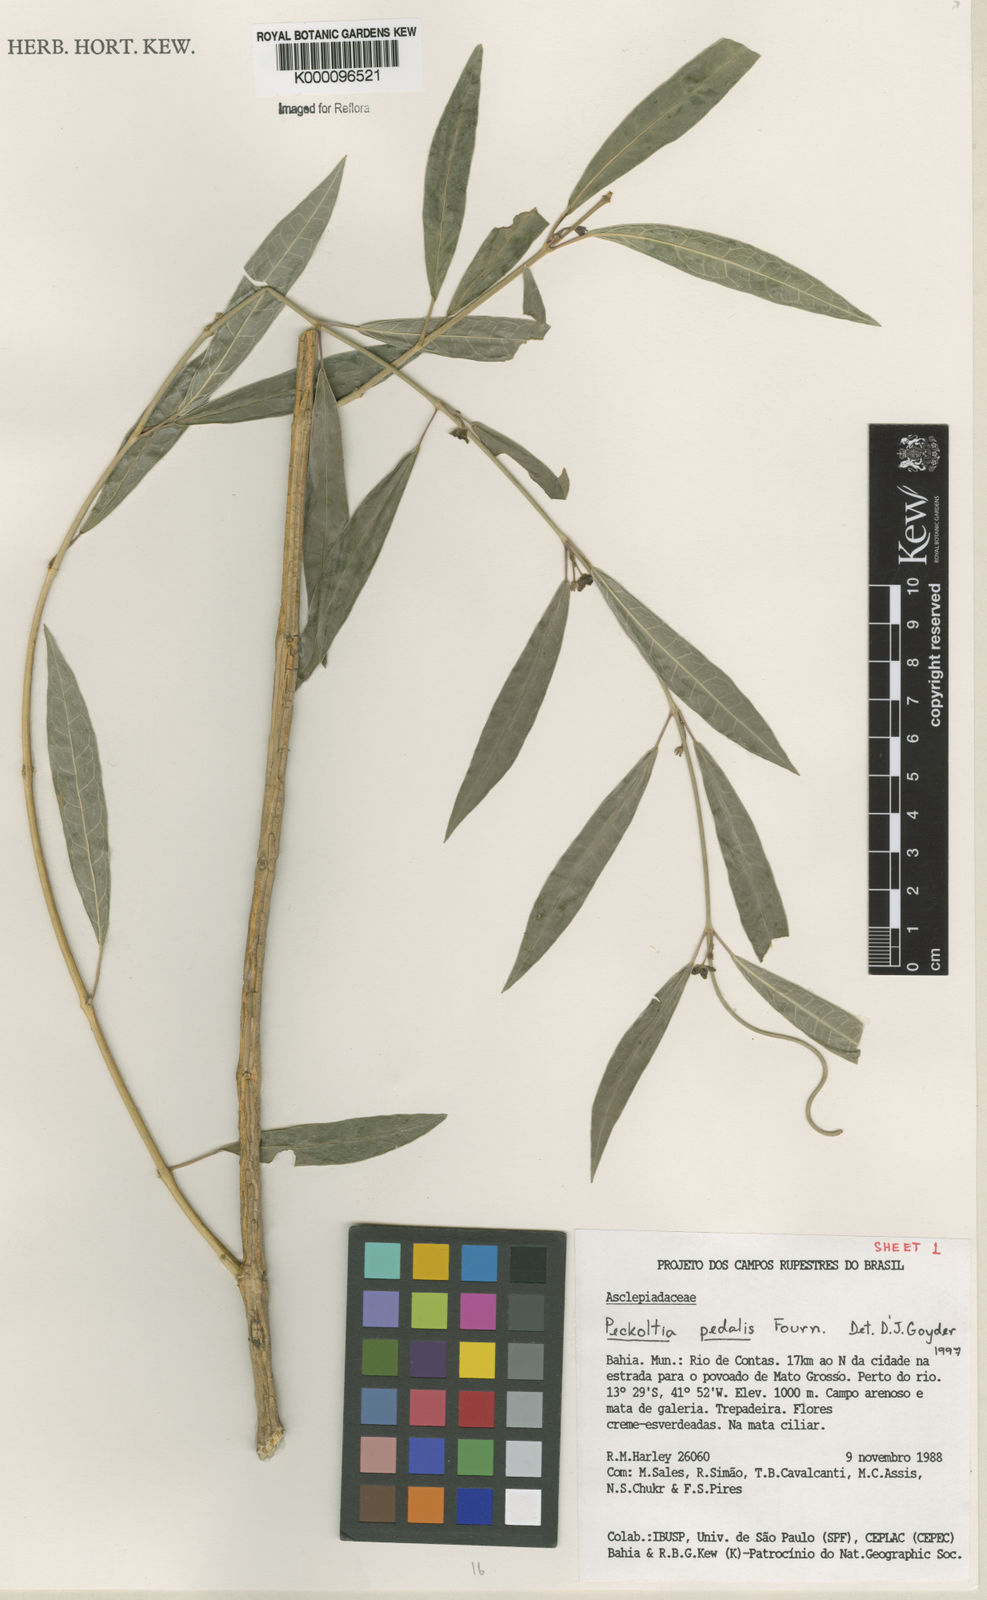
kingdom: Plantae
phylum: Tracheophyta
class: Magnoliopsida
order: Gentianales
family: Apocynaceae
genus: Matelea
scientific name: Matelea pedalis
